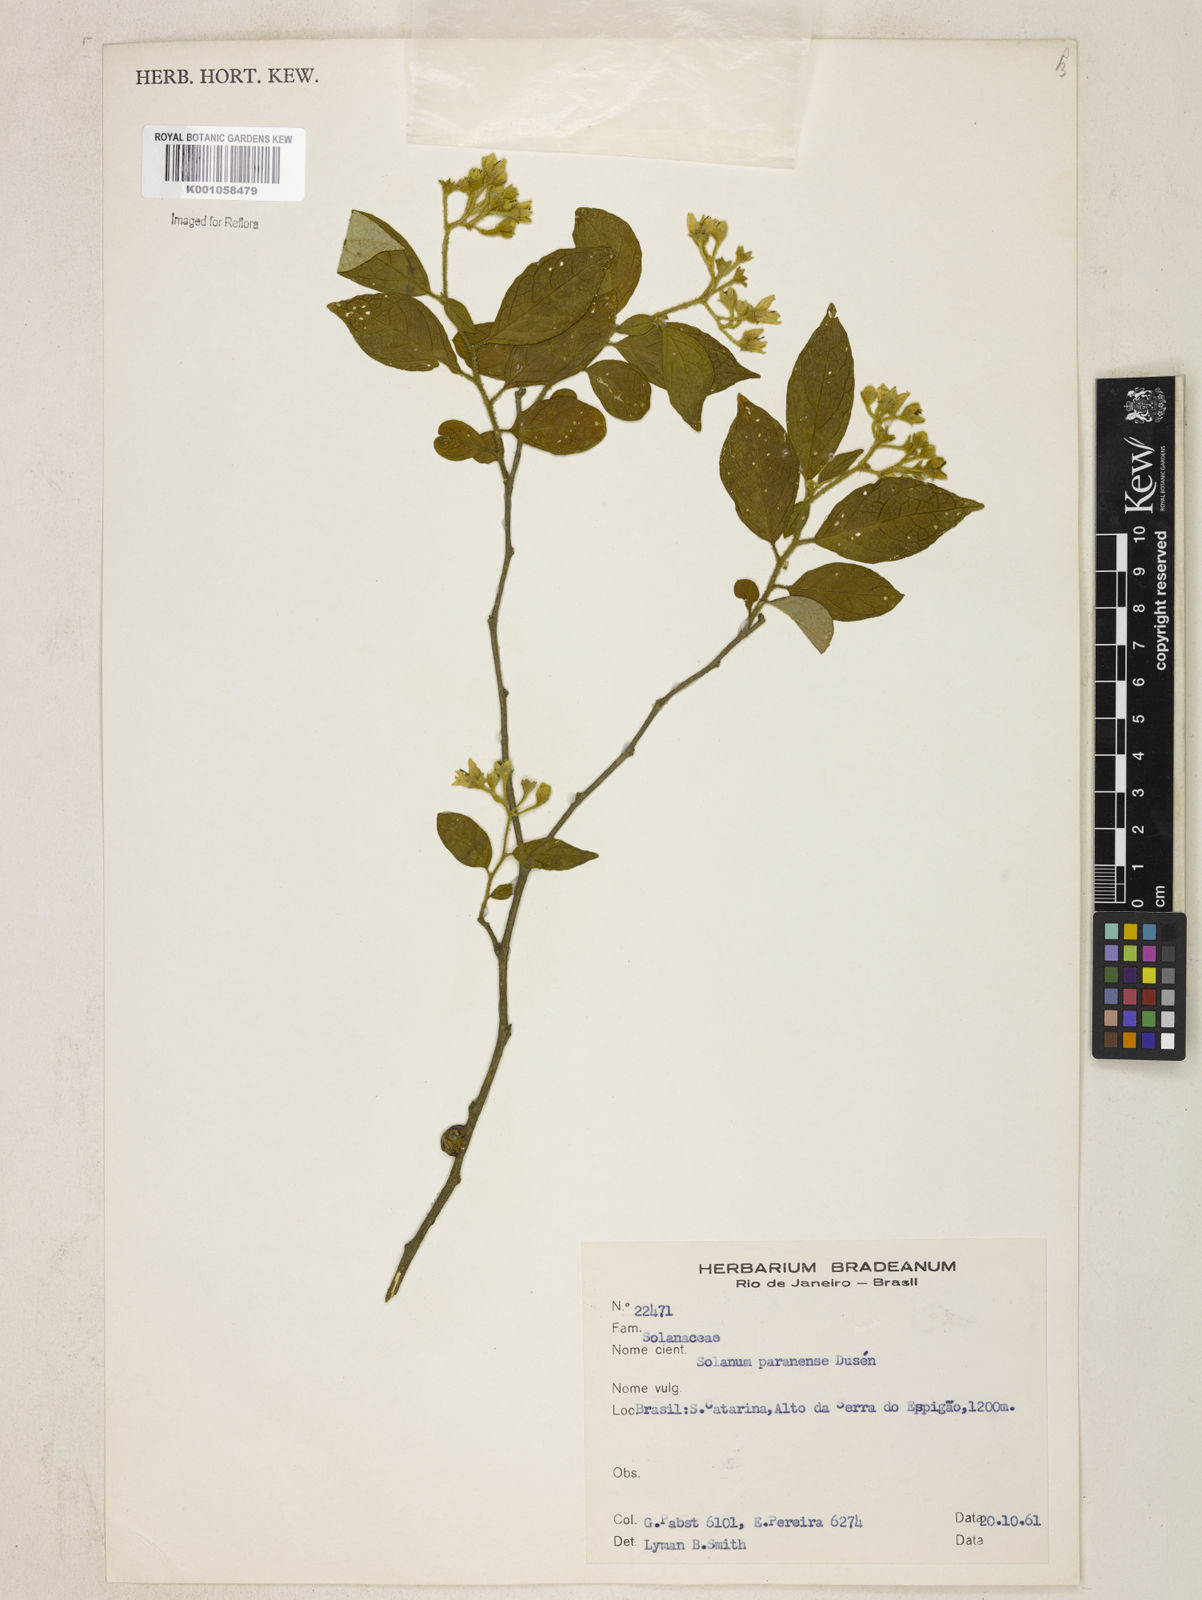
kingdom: Plantae
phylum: Tracheophyta
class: Magnoliopsida
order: Solanales
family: Solanaceae
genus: Solanum
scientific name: Solanum
